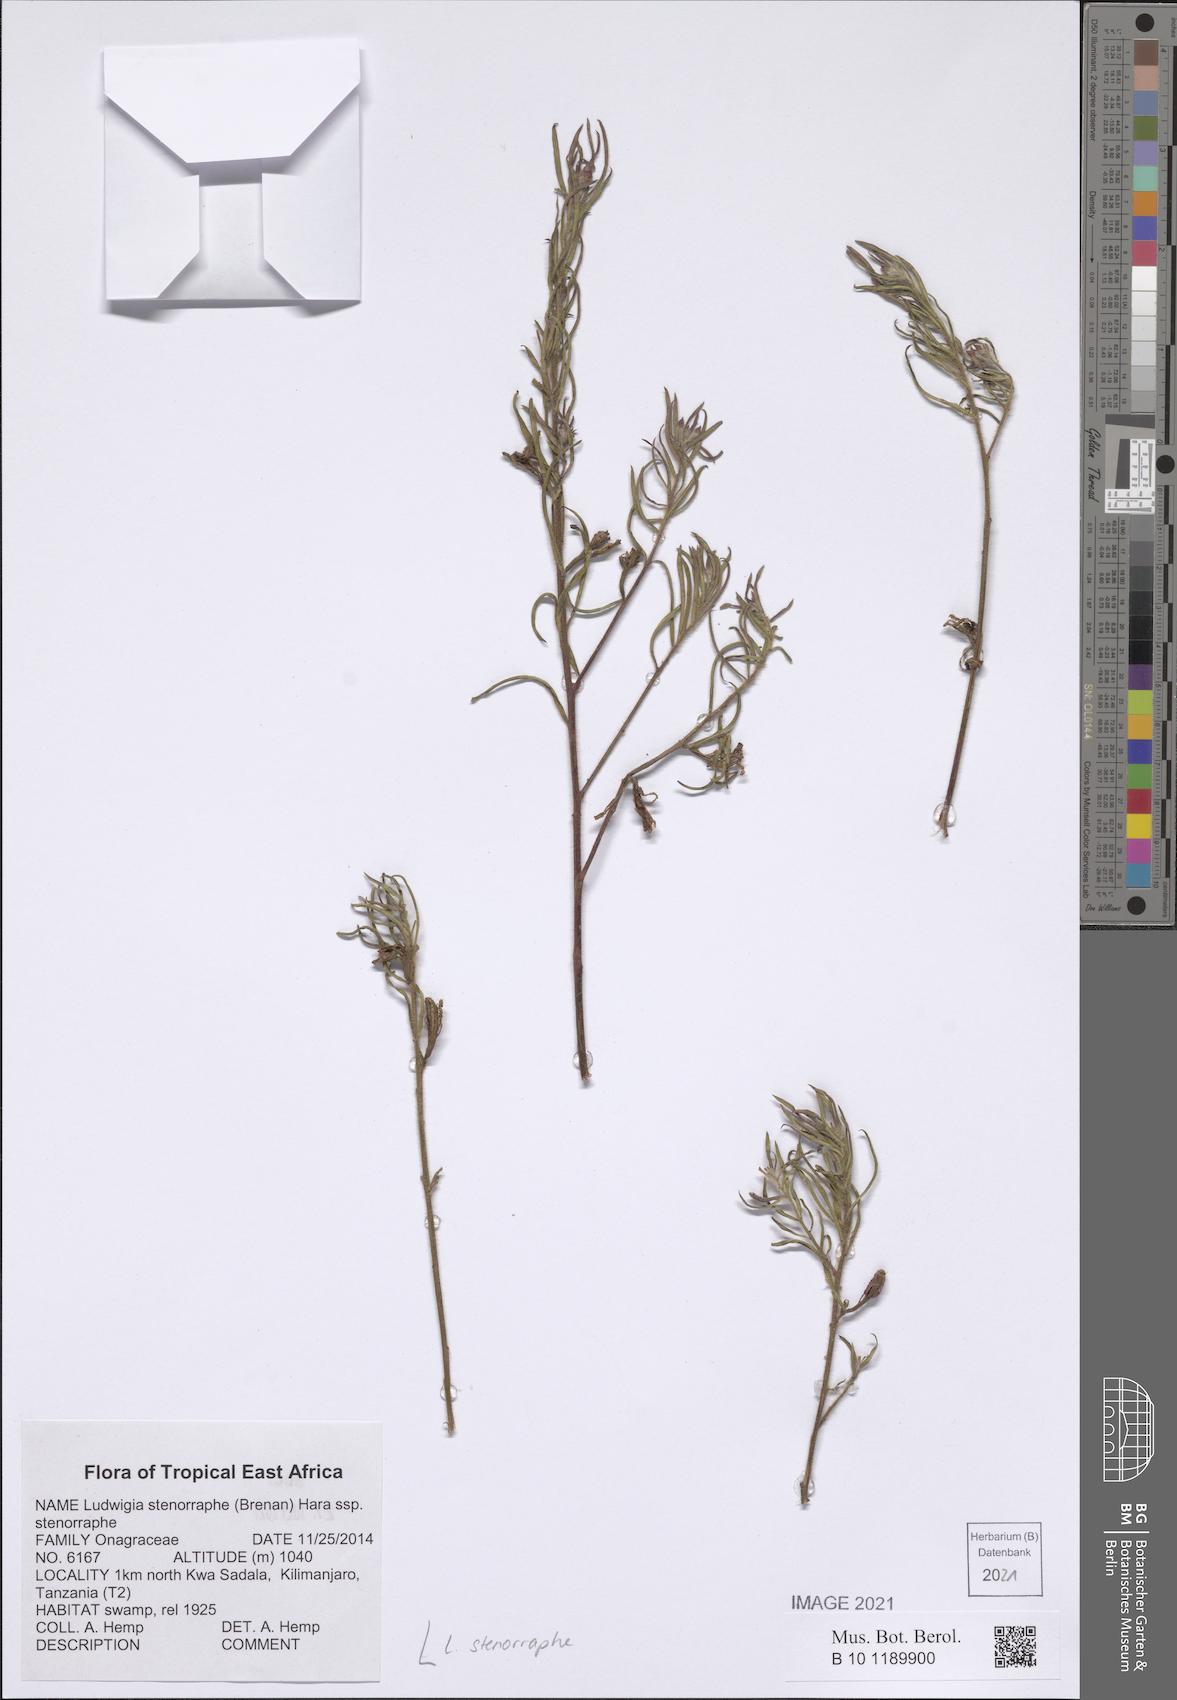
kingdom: Plantae
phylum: Tracheophyta
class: Magnoliopsida
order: Myrtales
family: Onagraceae
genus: Ludwigia
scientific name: Ludwigia stenorraphe
